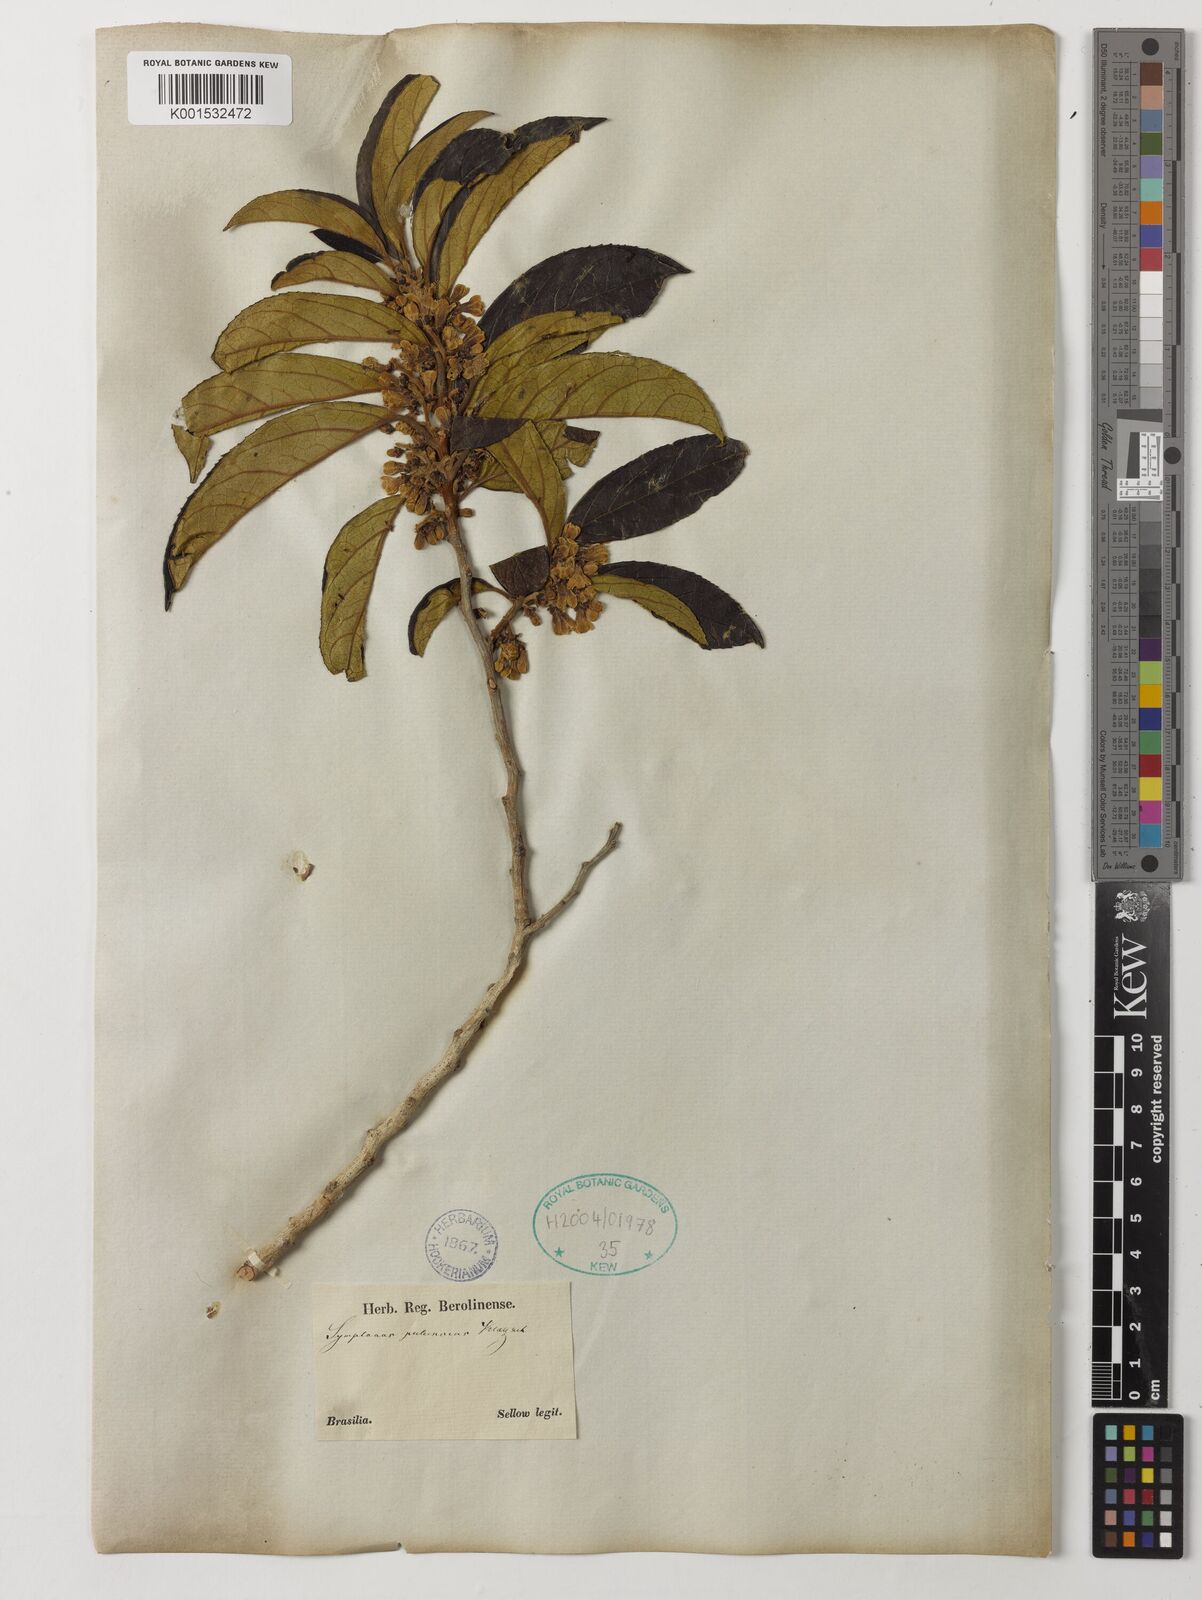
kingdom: Plantae
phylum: Tracheophyta
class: Magnoliopsida
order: Ericales
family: Symplocaceae
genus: Symplocos
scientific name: Symplocos pubescens
